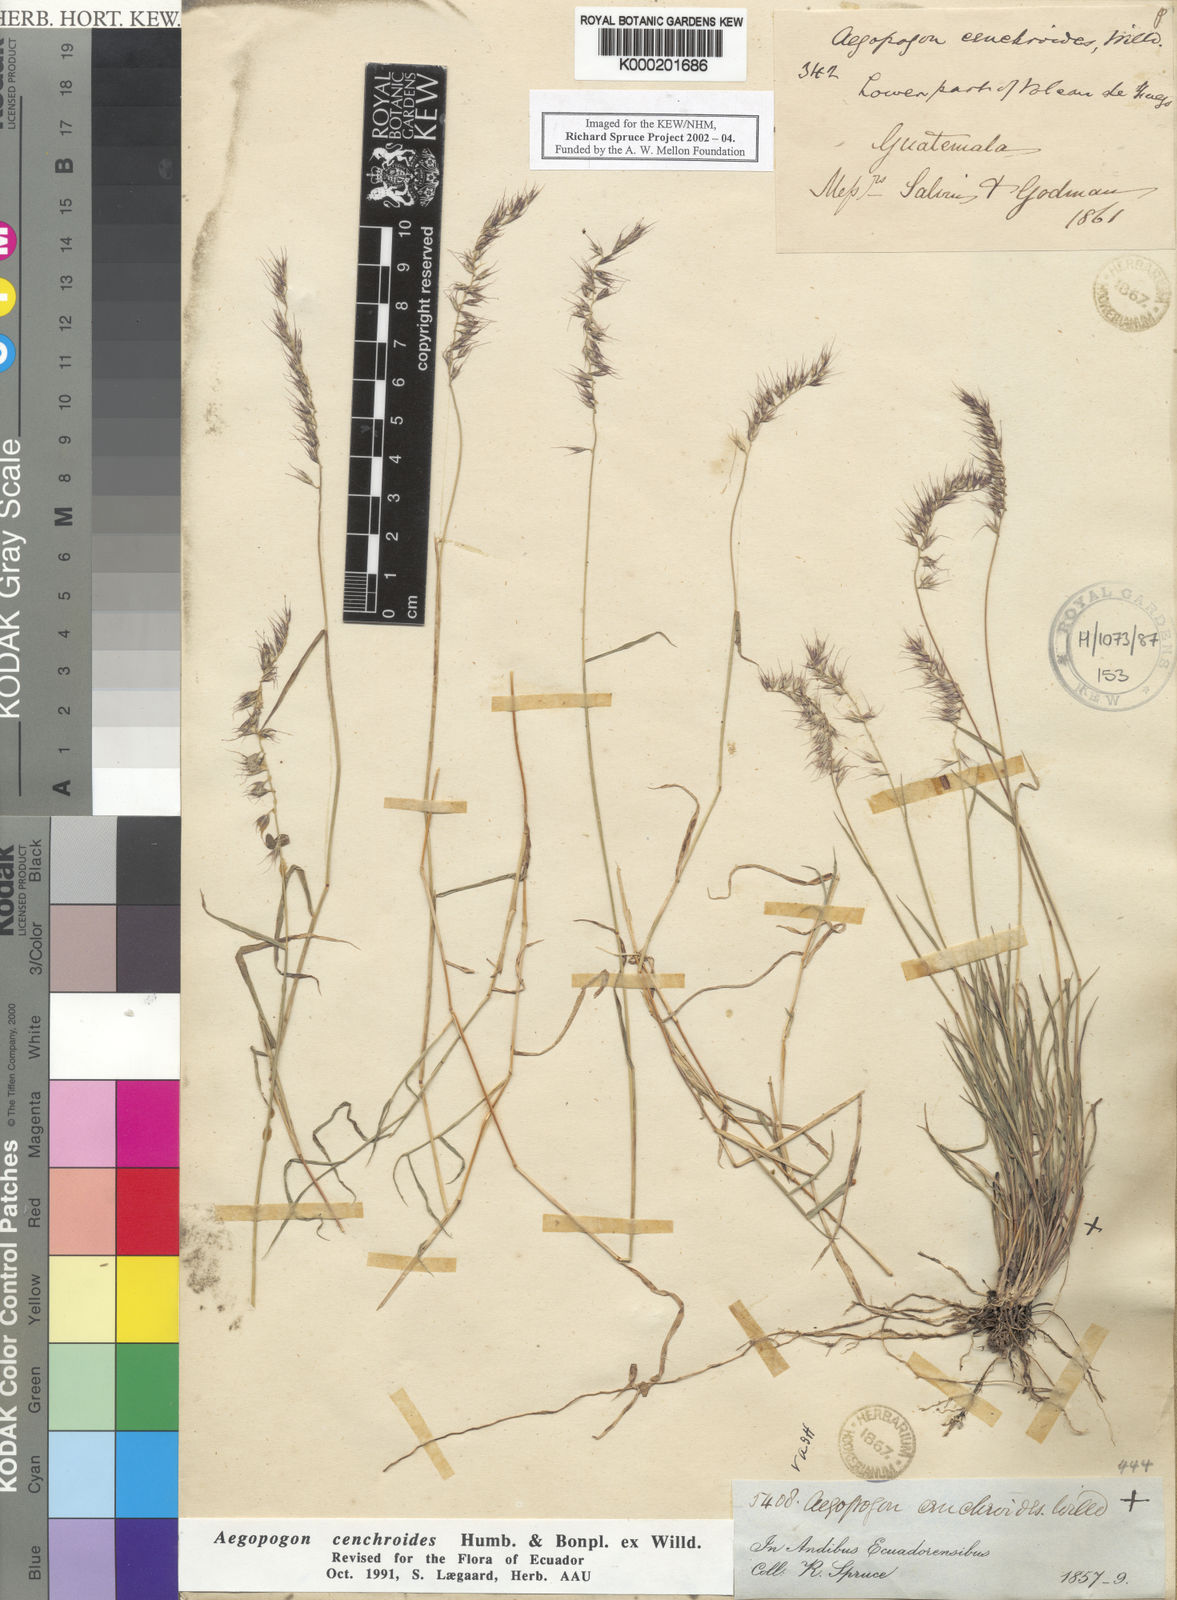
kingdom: Plantae
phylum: Tracheophyta
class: Liliopsida
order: Poales
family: Poaceae
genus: Muhlenbergia
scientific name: Muhlenbergia cenchroides
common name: Relaxgrass
